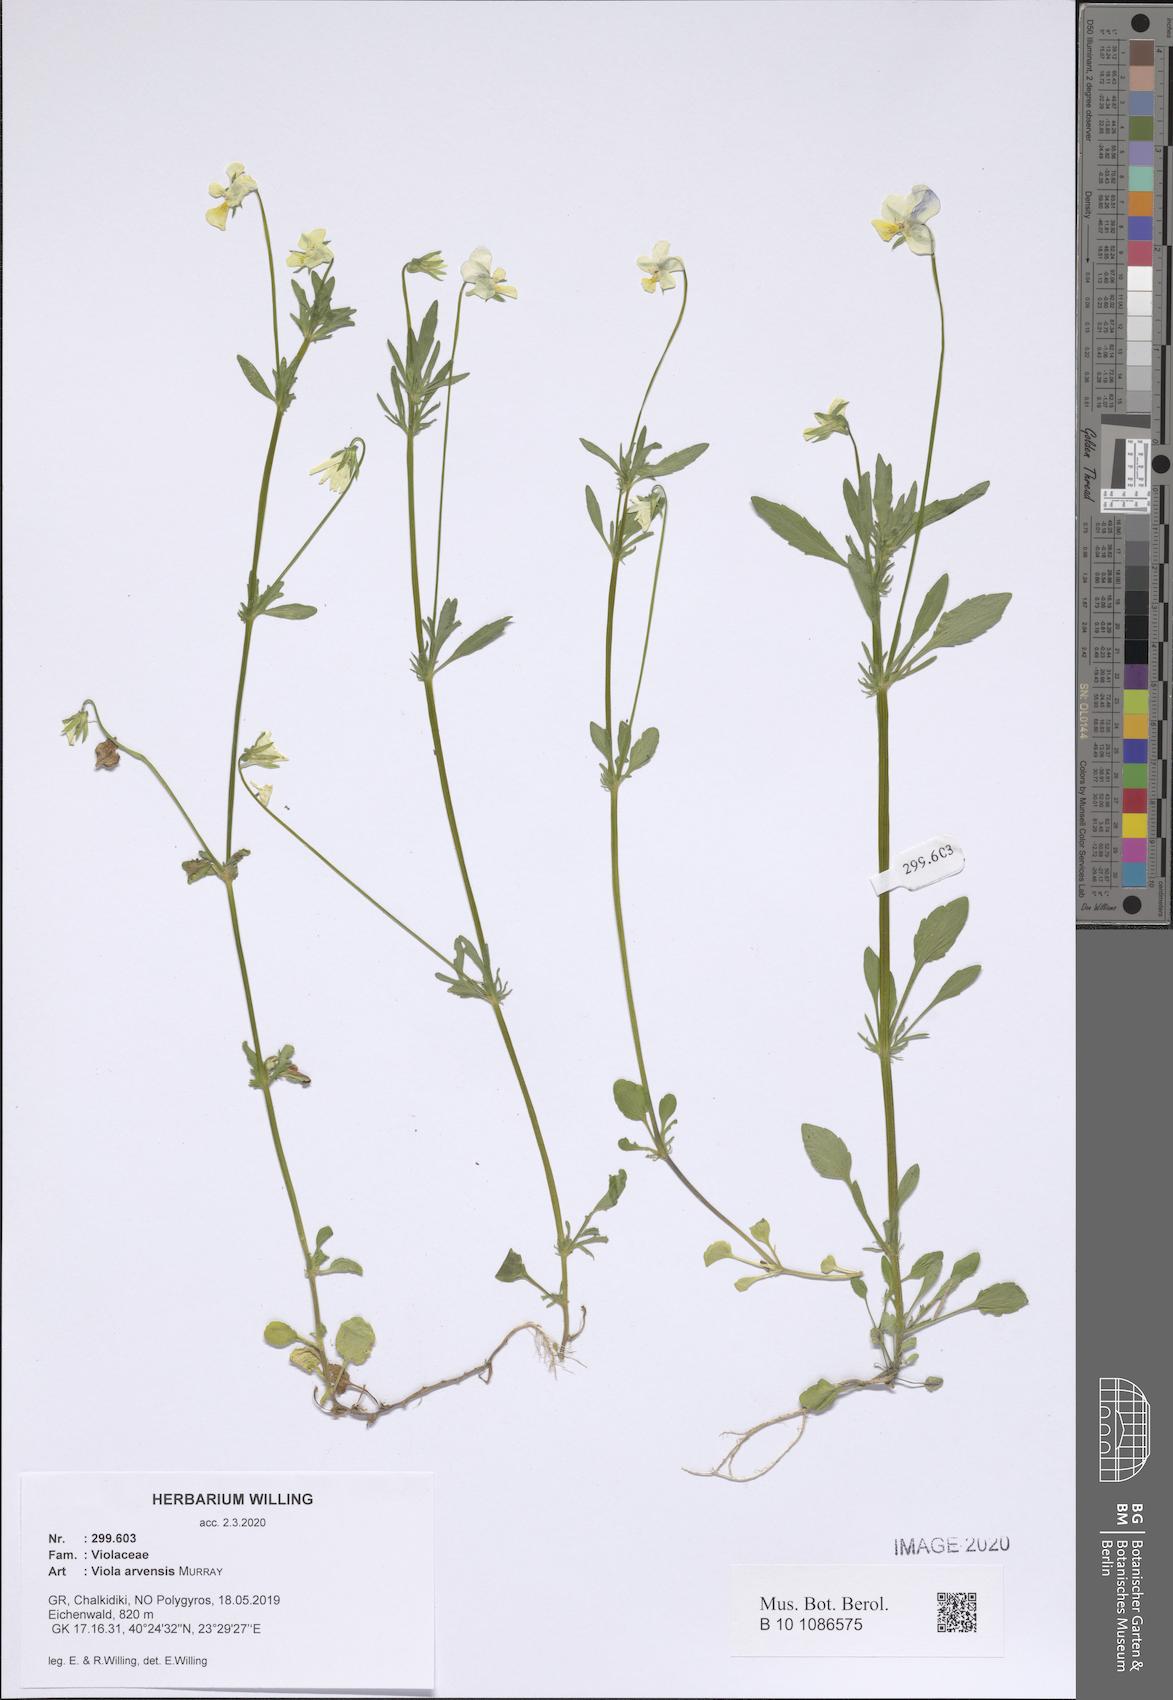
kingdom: Plantae
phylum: Tracheophyta
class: Magnoliopsida
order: Malpighiales
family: Violaceae
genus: Viola
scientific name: Viola arvensis
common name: Field pansy
